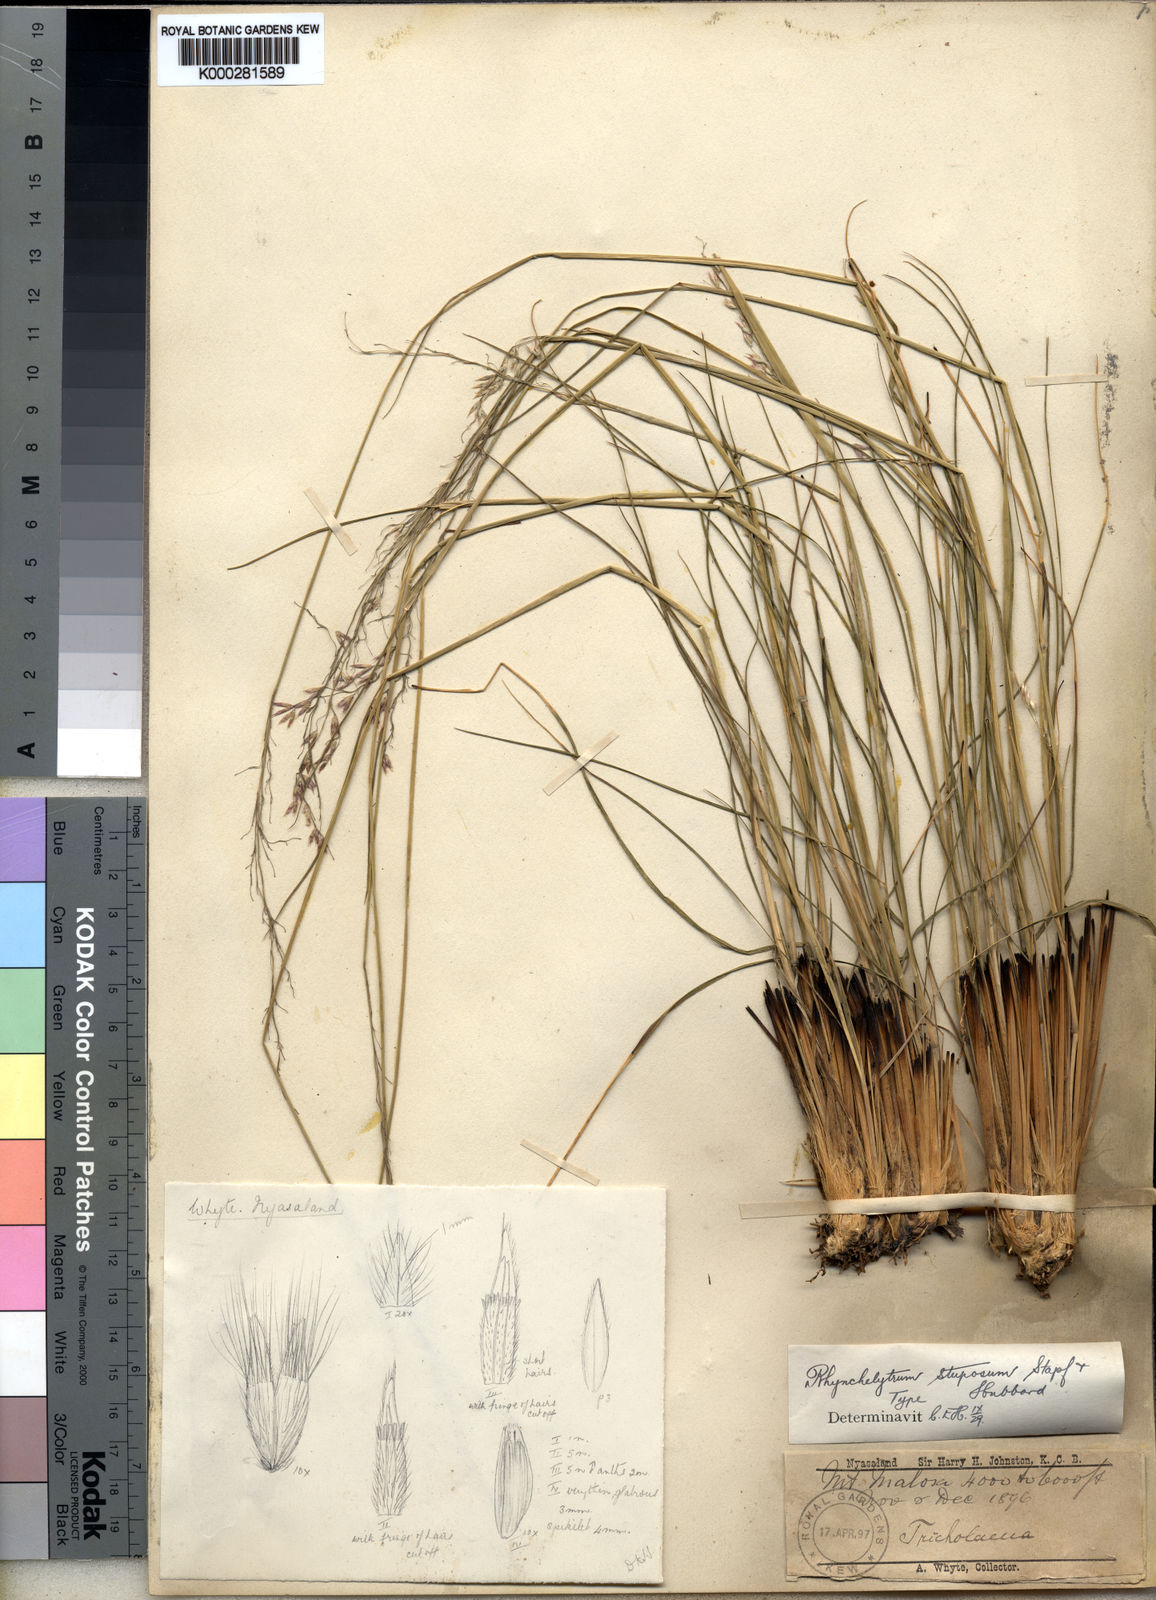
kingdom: Plantae
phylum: Tracheophyta
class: Liliopsida
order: Poales
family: Poaceae
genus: Melinis
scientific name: Melinis nerviglumis
